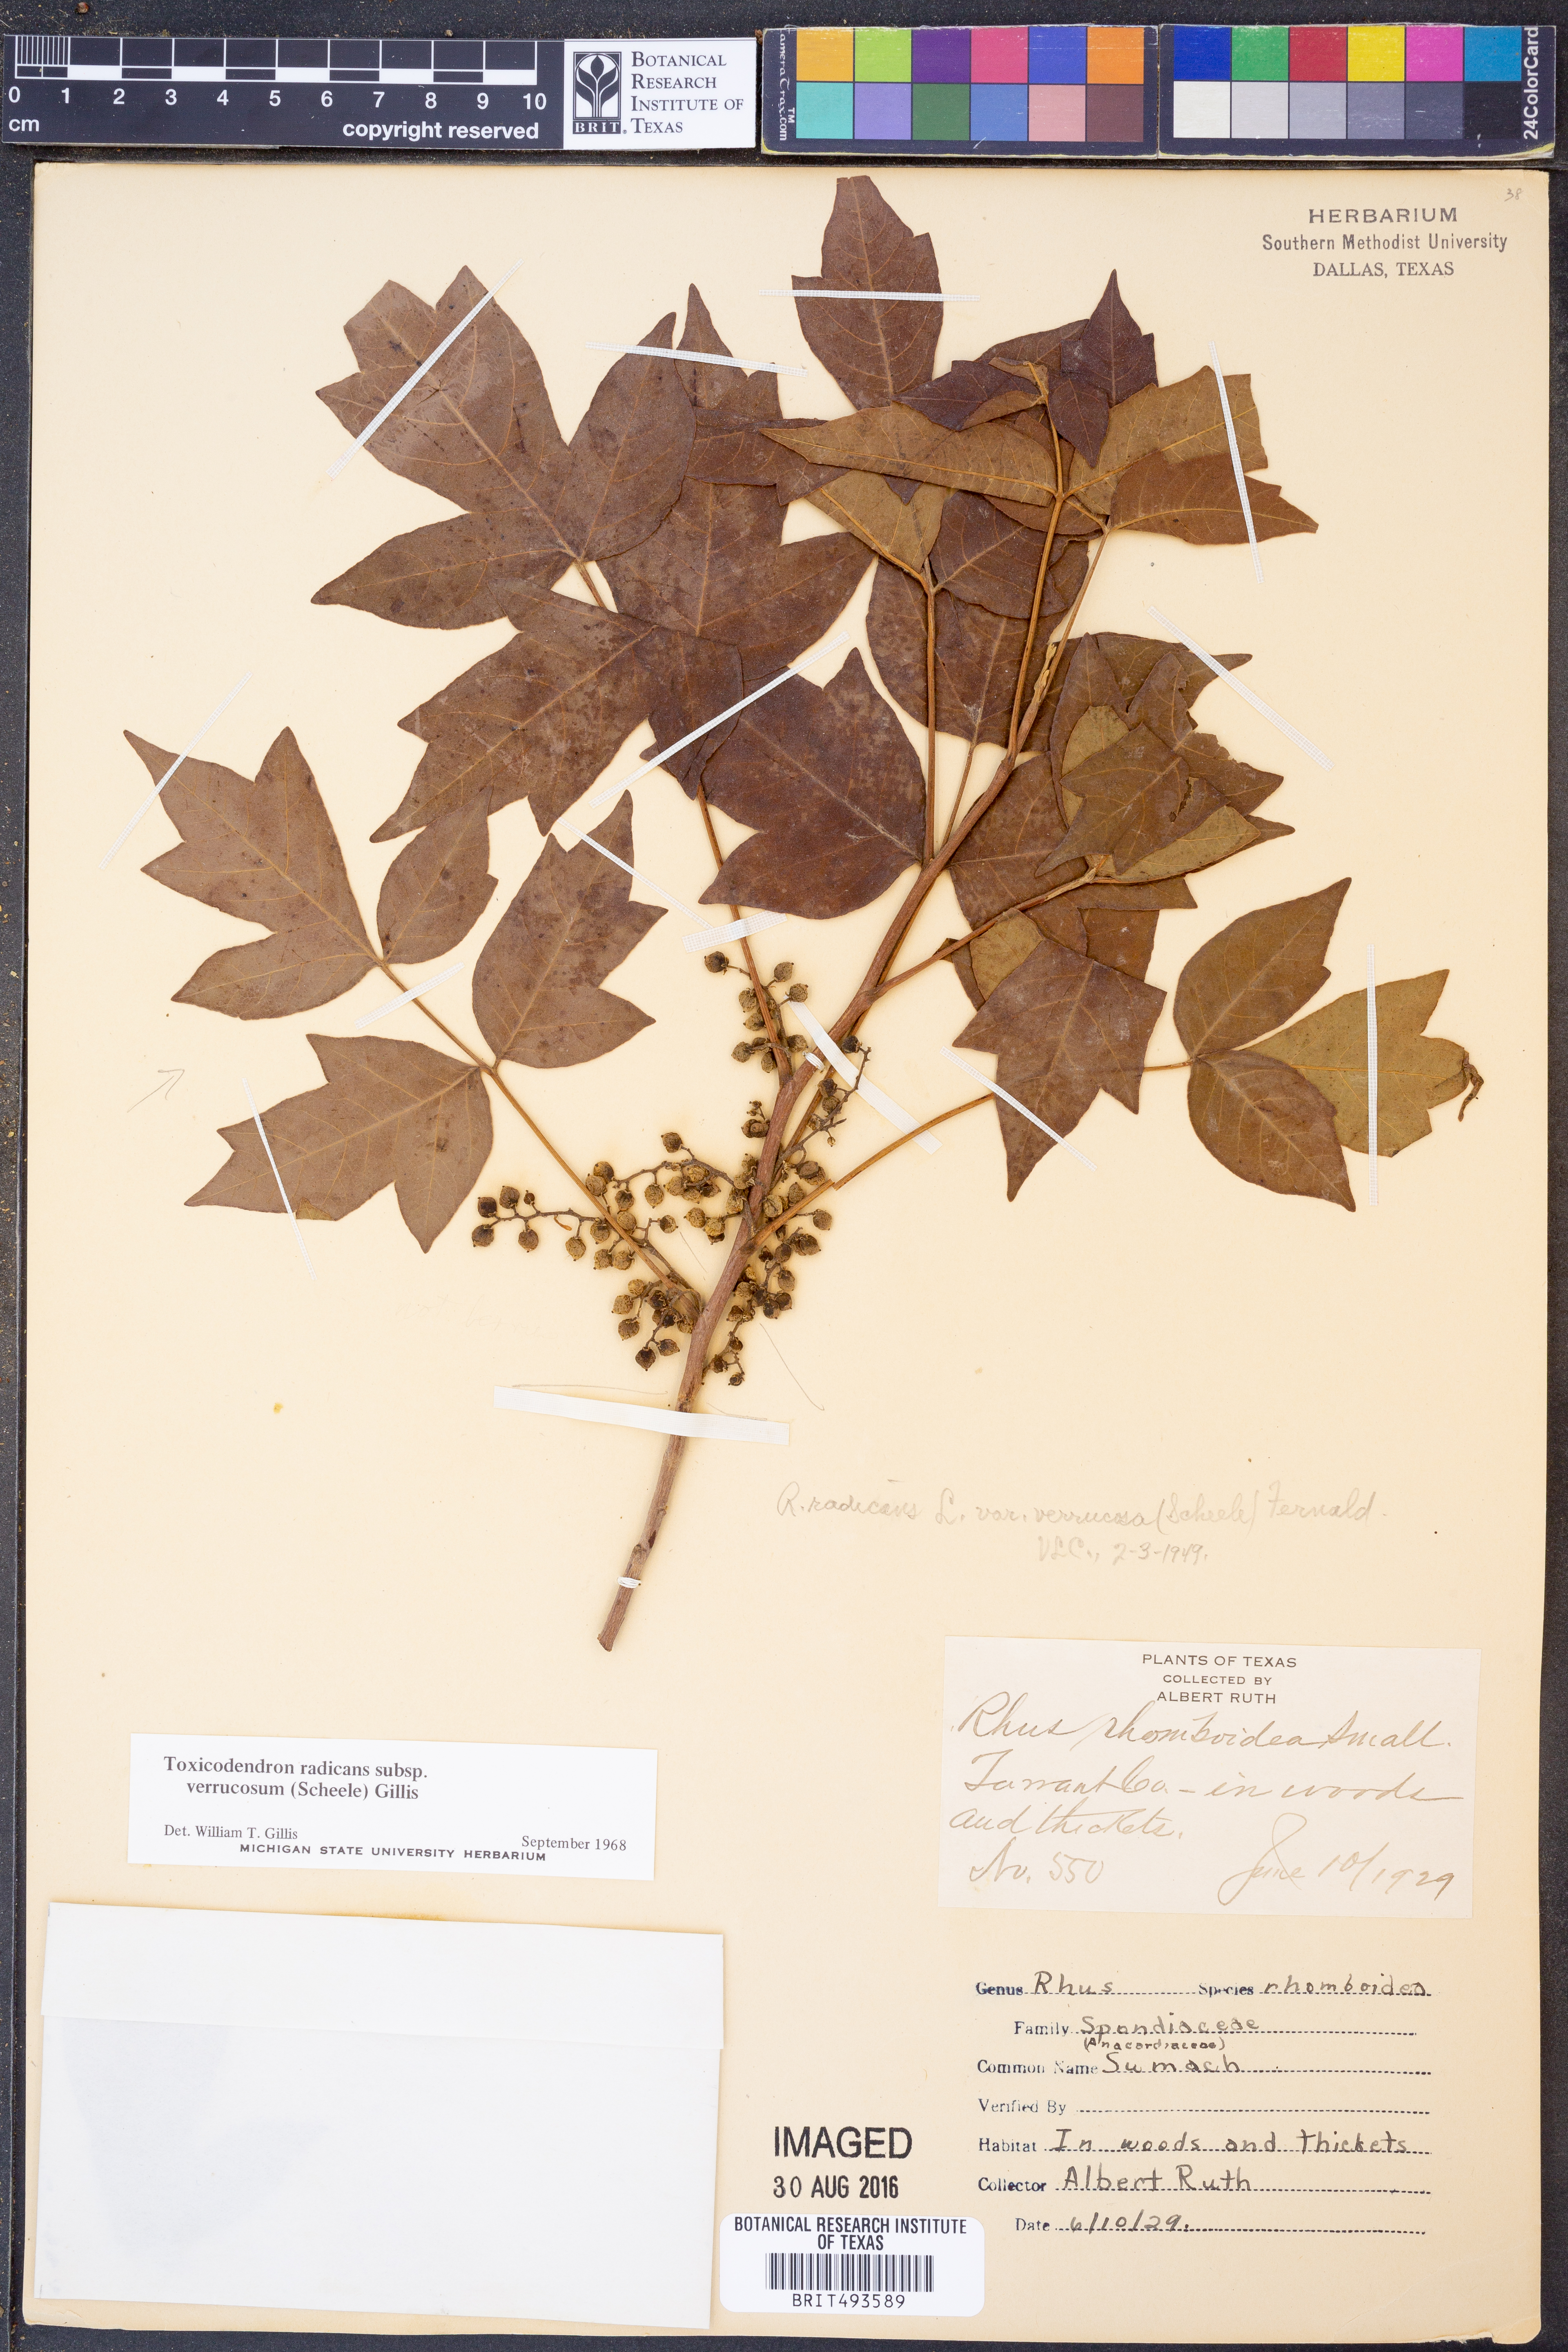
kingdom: Plantae
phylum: Tracheophyta
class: Magnoliopsida
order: Sapindales
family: Anacardiaceae
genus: Toxicodendron
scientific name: Toxicodendron radicans
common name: Poison ivy
